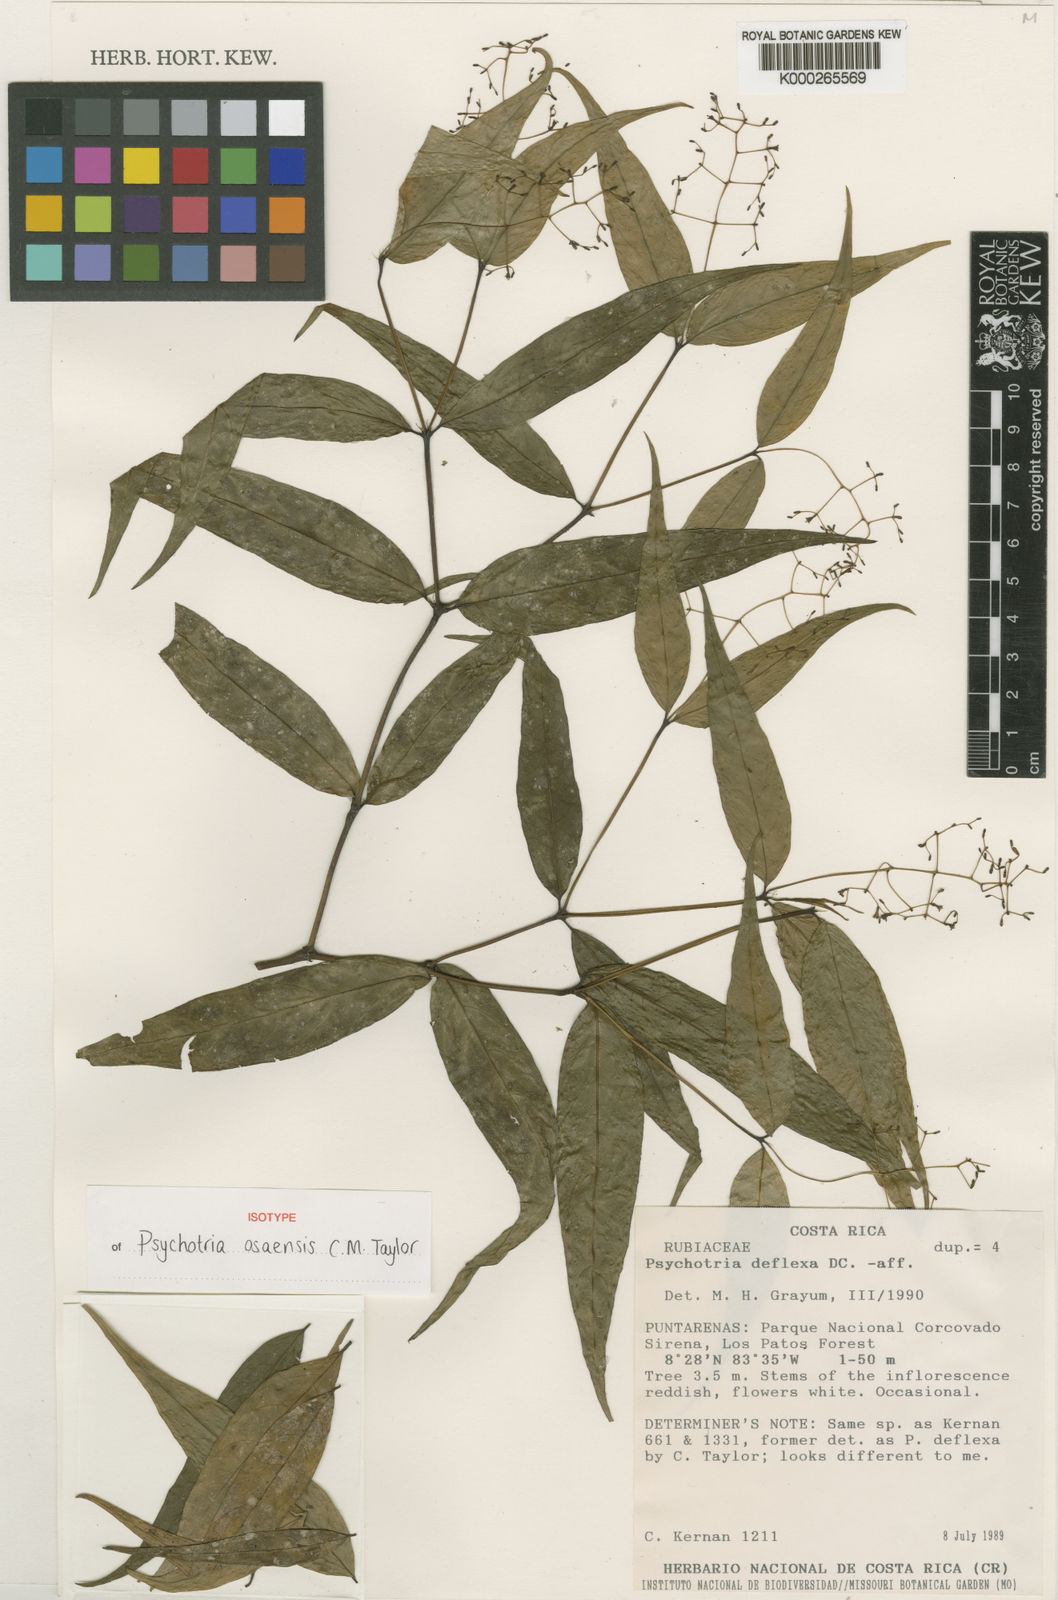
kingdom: Plantae
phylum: Tracheophyta
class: Magnoliopsida
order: Gentianales
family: Rubiaceae
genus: Psychotria
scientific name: Psychotria
